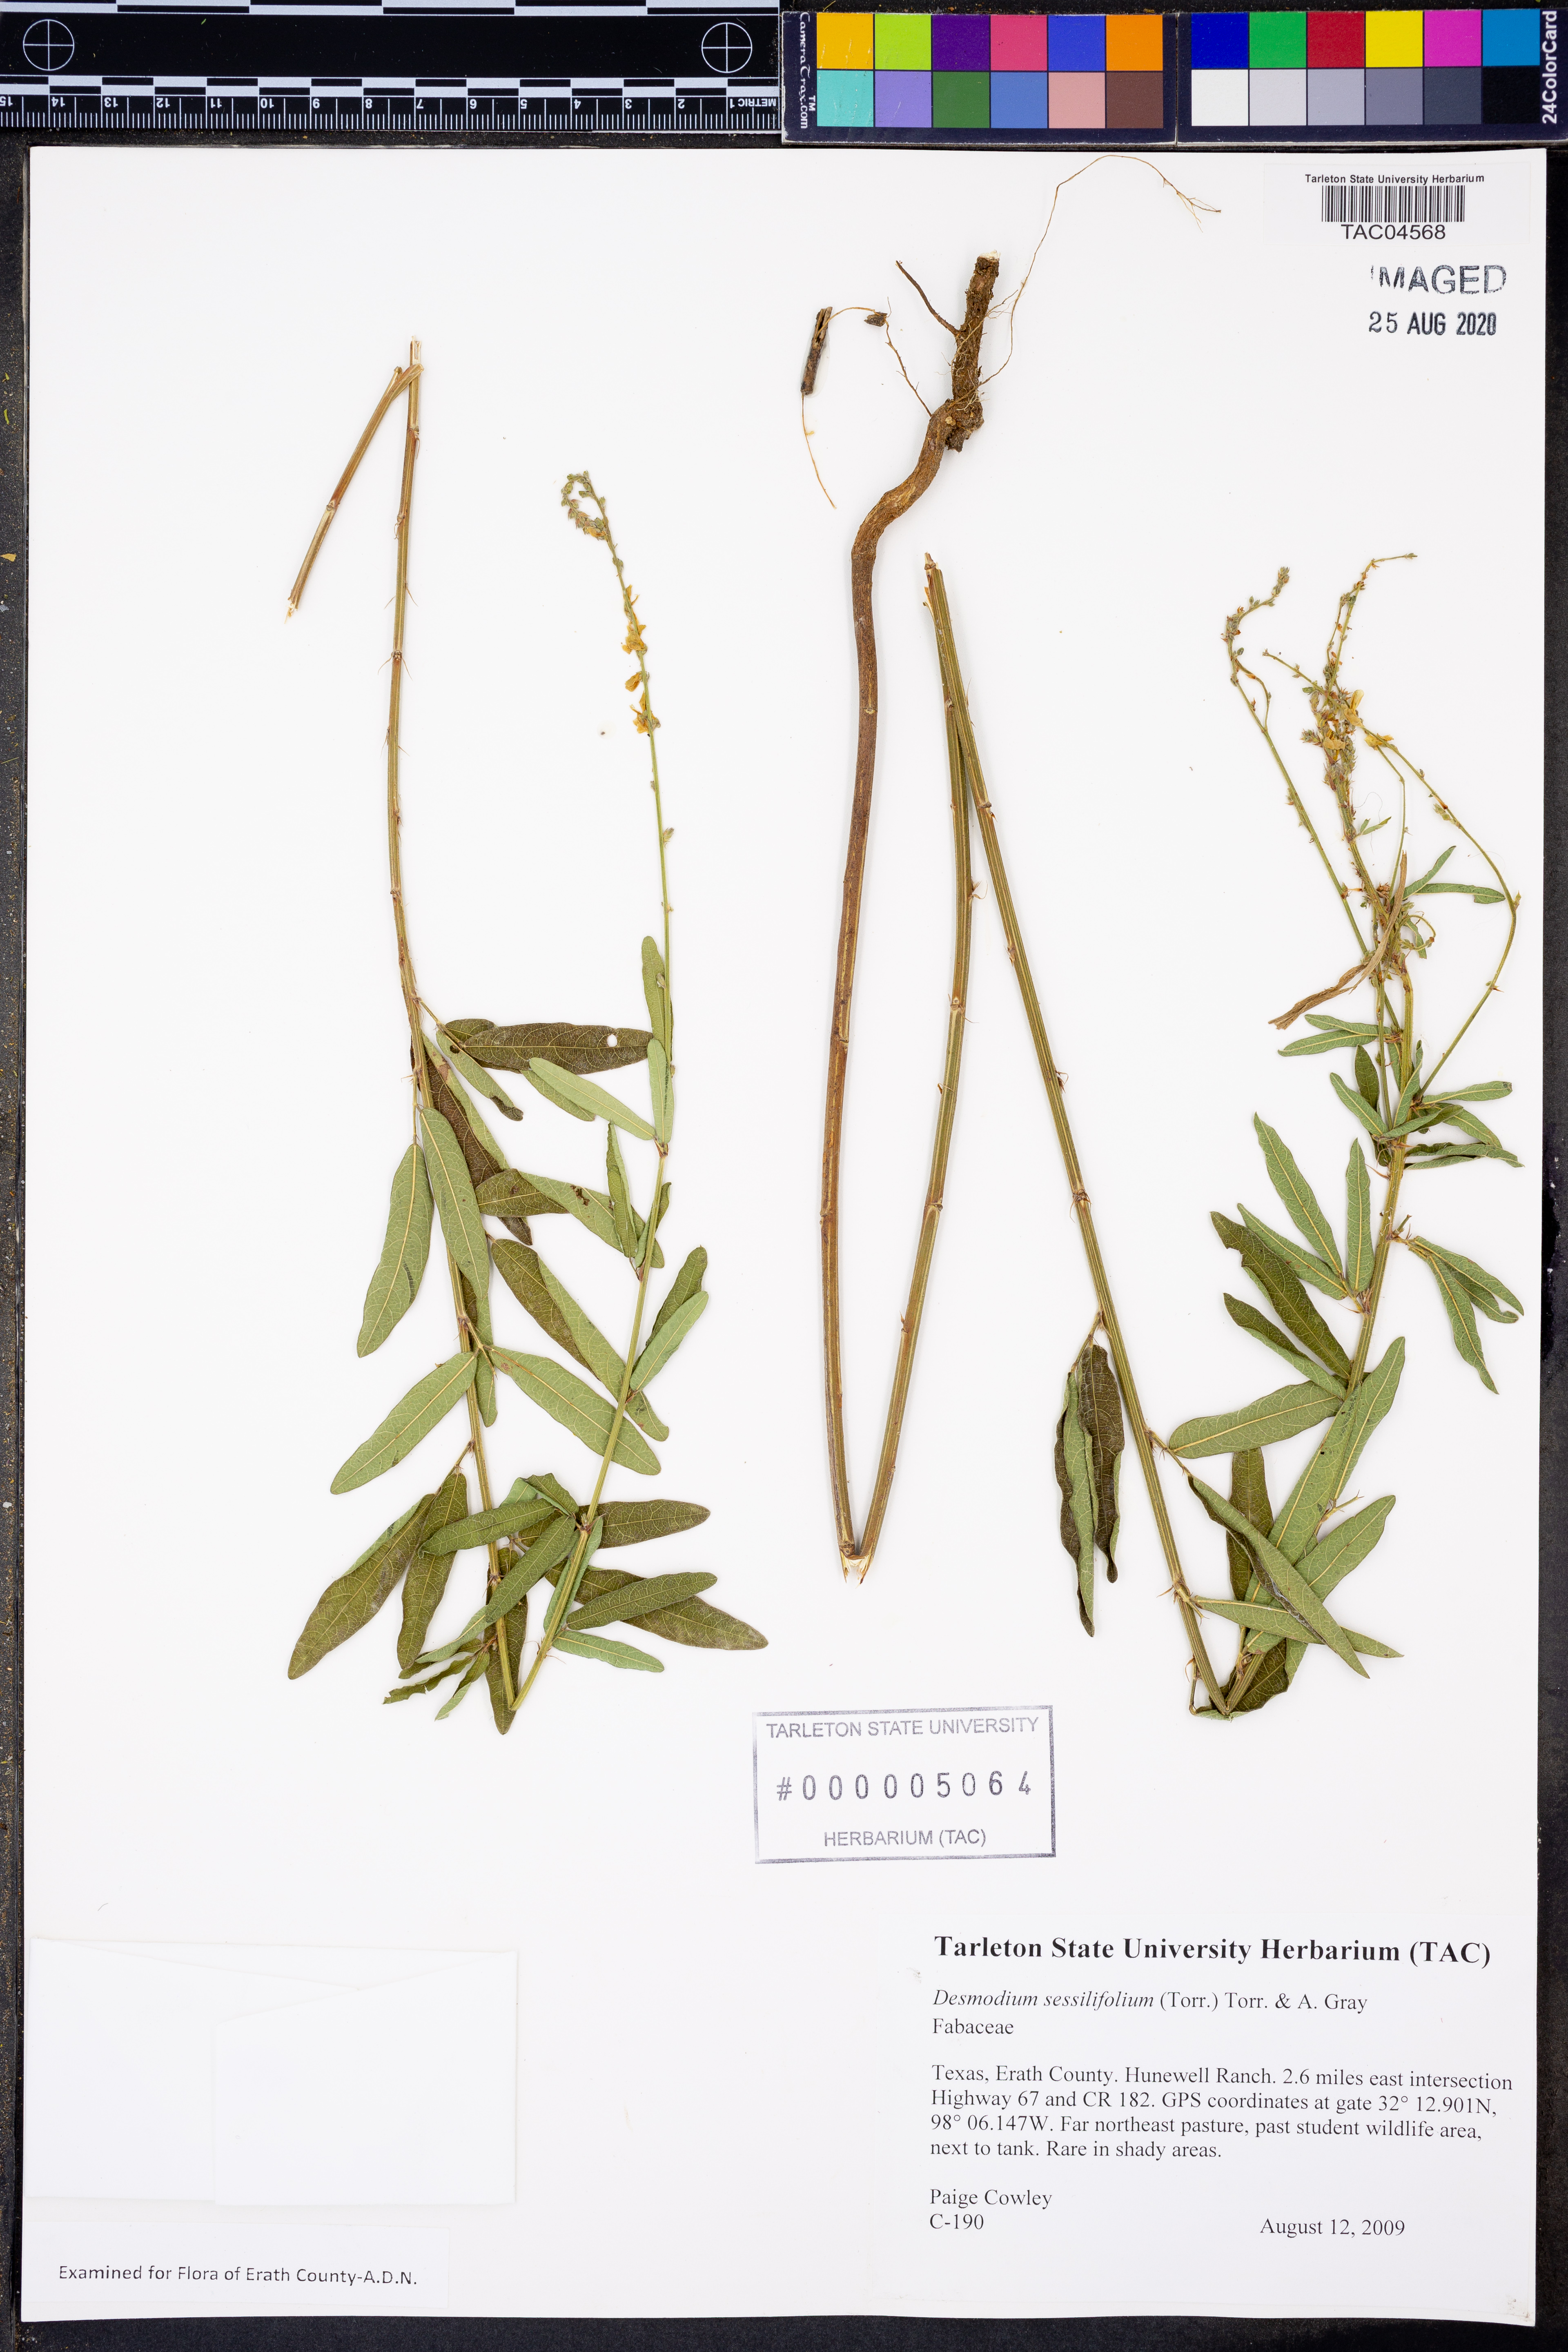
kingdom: Plantae
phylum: Tracheophyta
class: Magnoliopsida
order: Fabales
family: Fabaceae
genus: Desmodium
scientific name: Desmodium sessilifolium
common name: Sessile tick-clover
